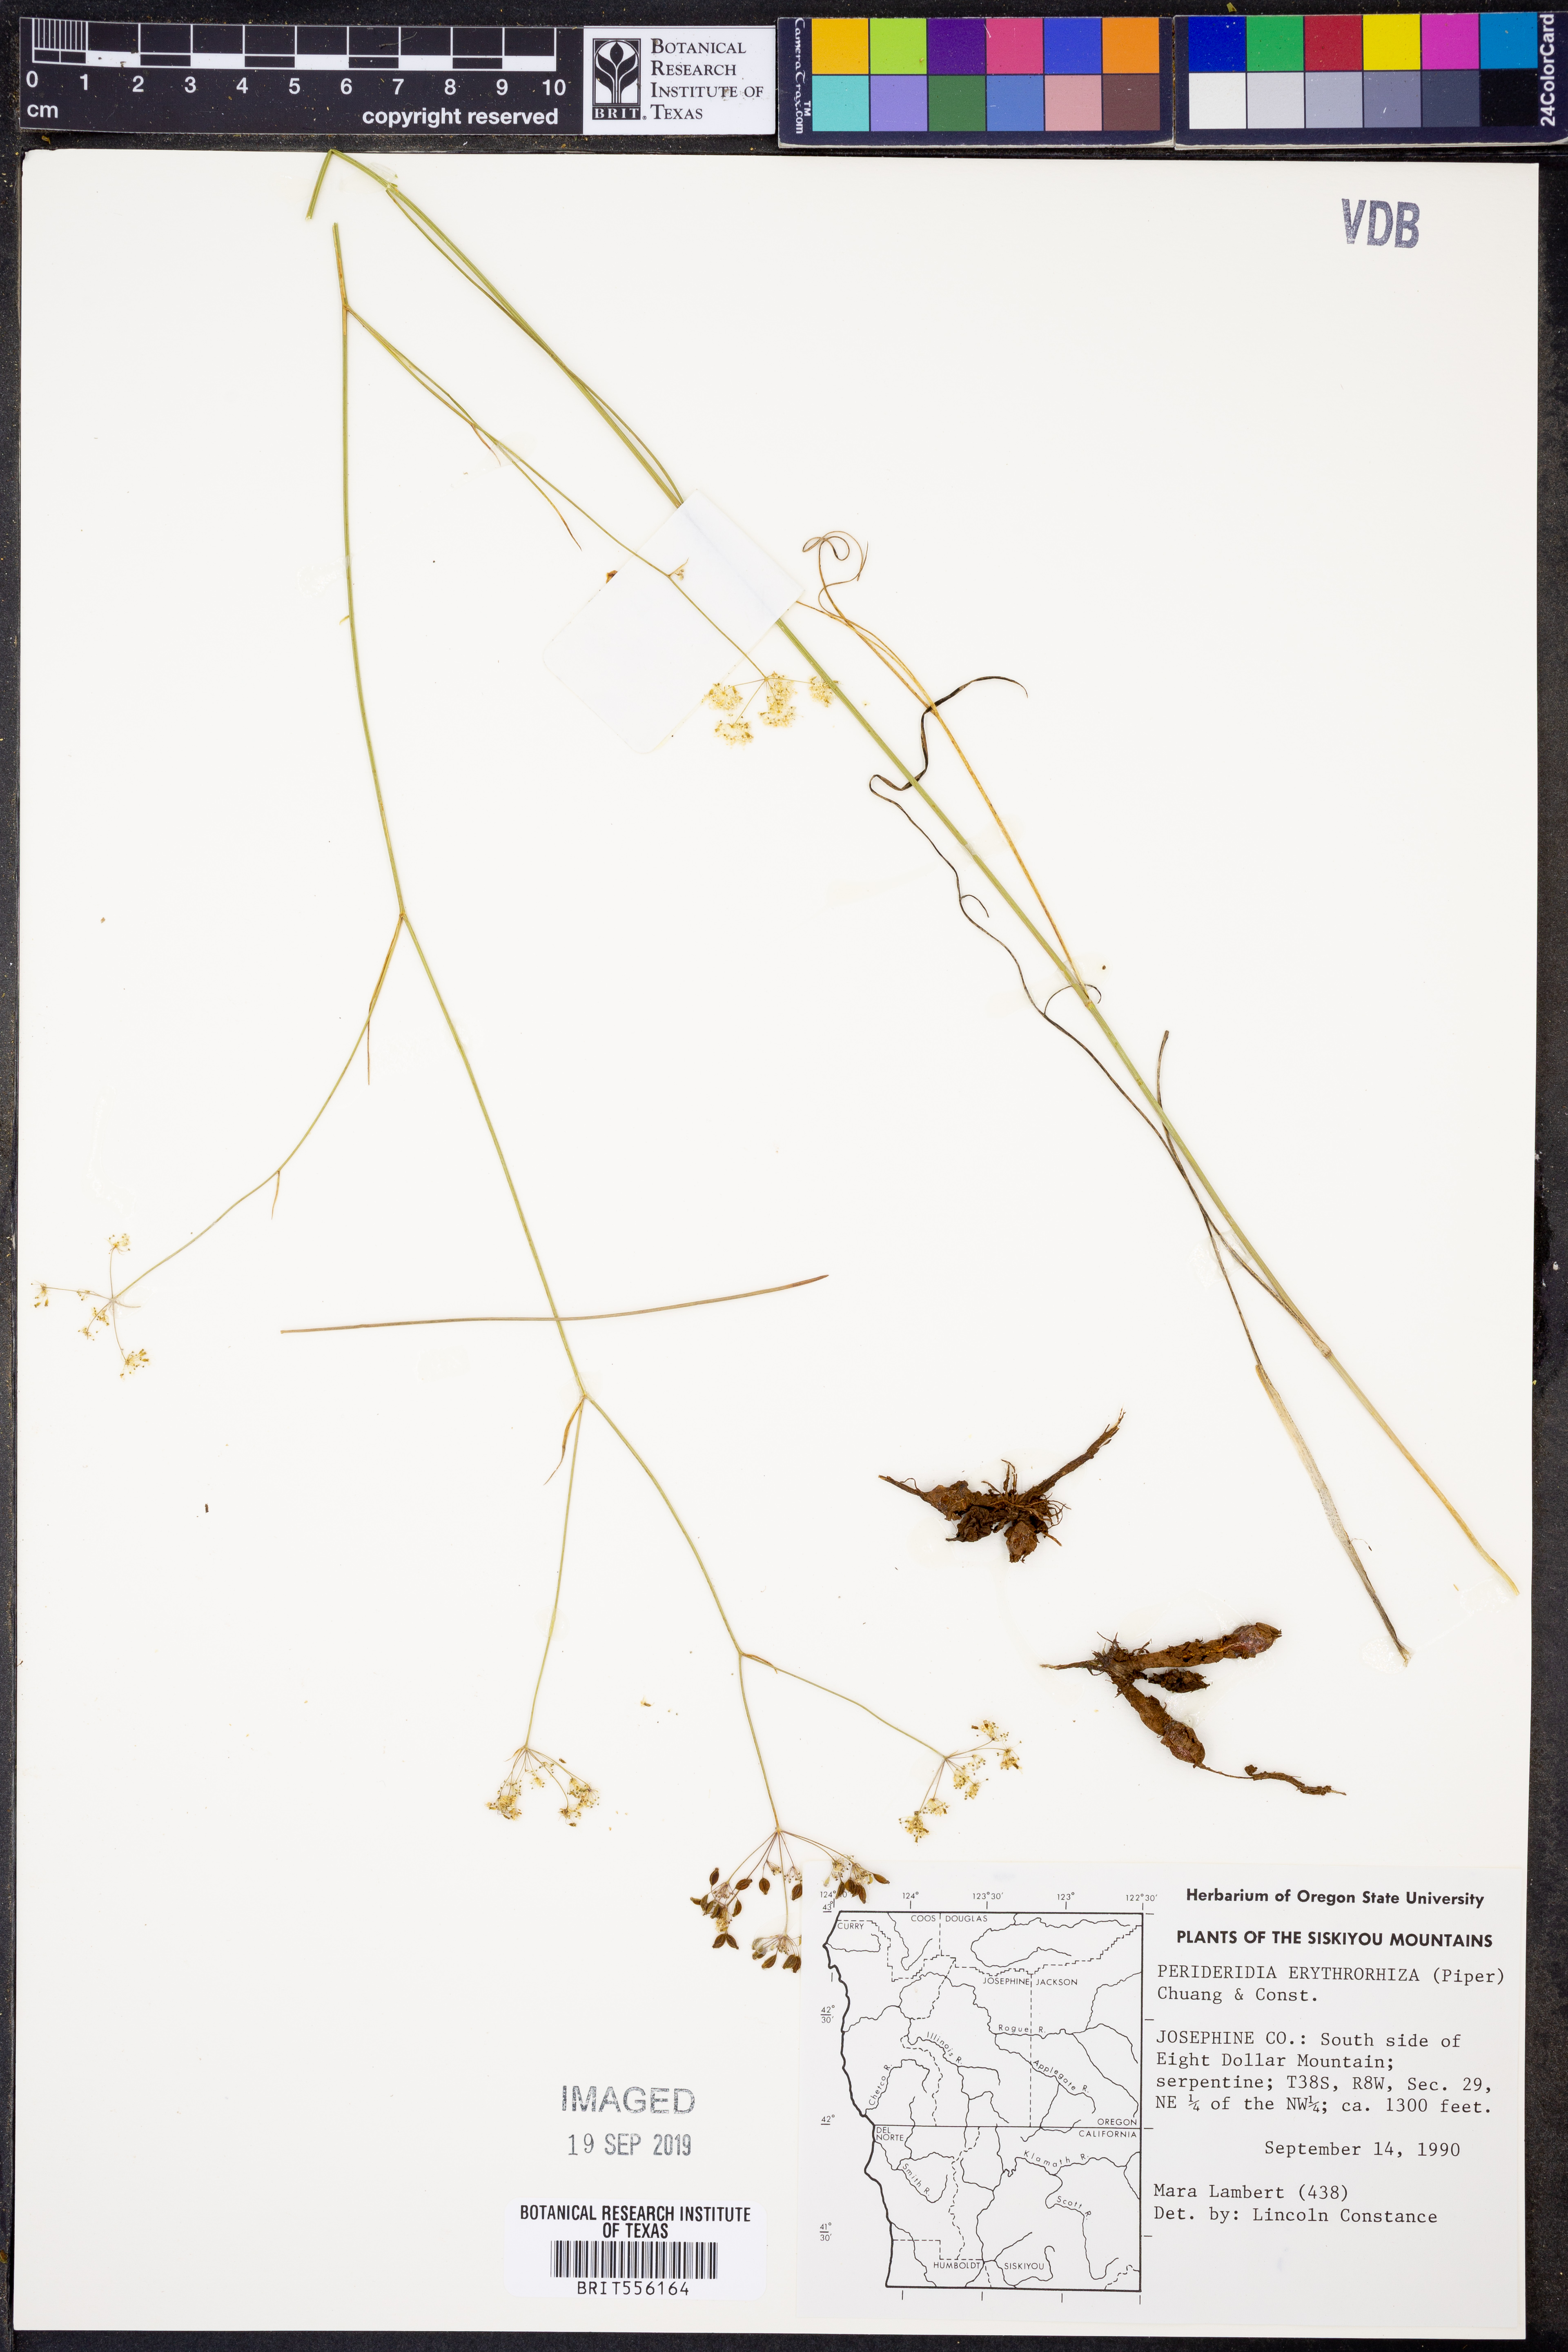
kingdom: Plantae
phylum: Tracheophyta
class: Magnoliopsida
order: Apiales
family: Apiaceae
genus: Perideridia
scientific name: Perideridia erythrorhiza
